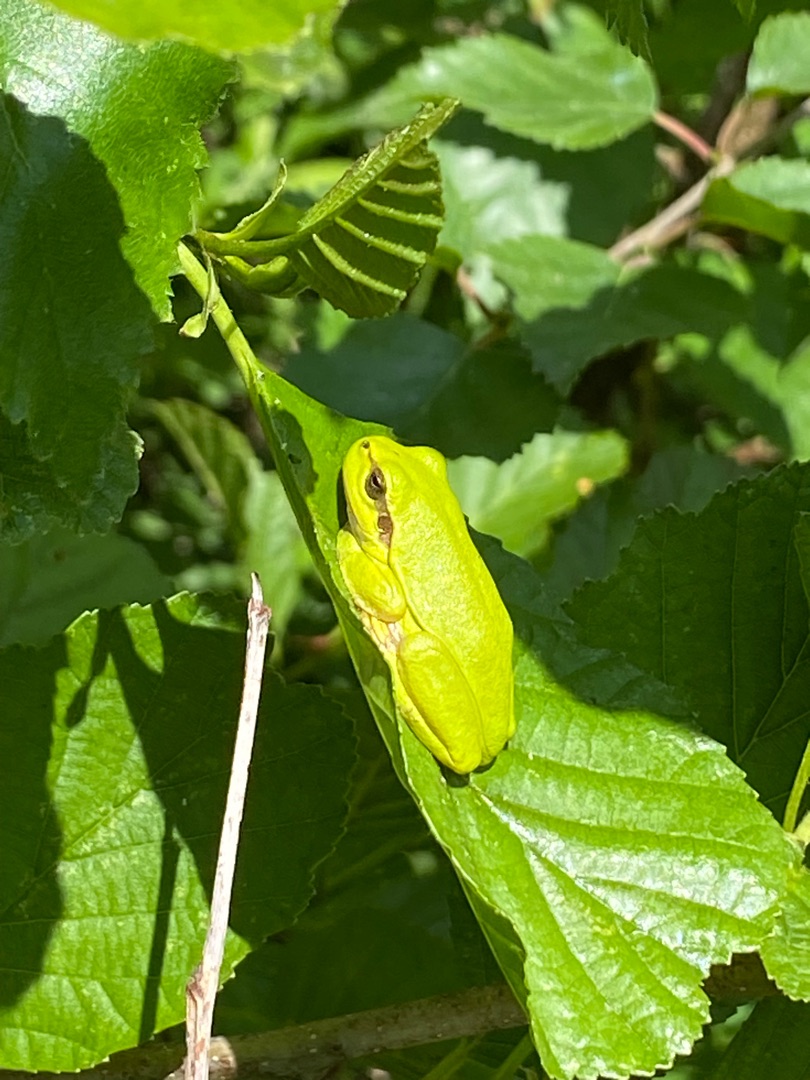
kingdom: Animalia
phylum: Chordata
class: Amphibia
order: Anura
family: Hylidae
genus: Hyla
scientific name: Hyla arborea
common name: Løvfrø
